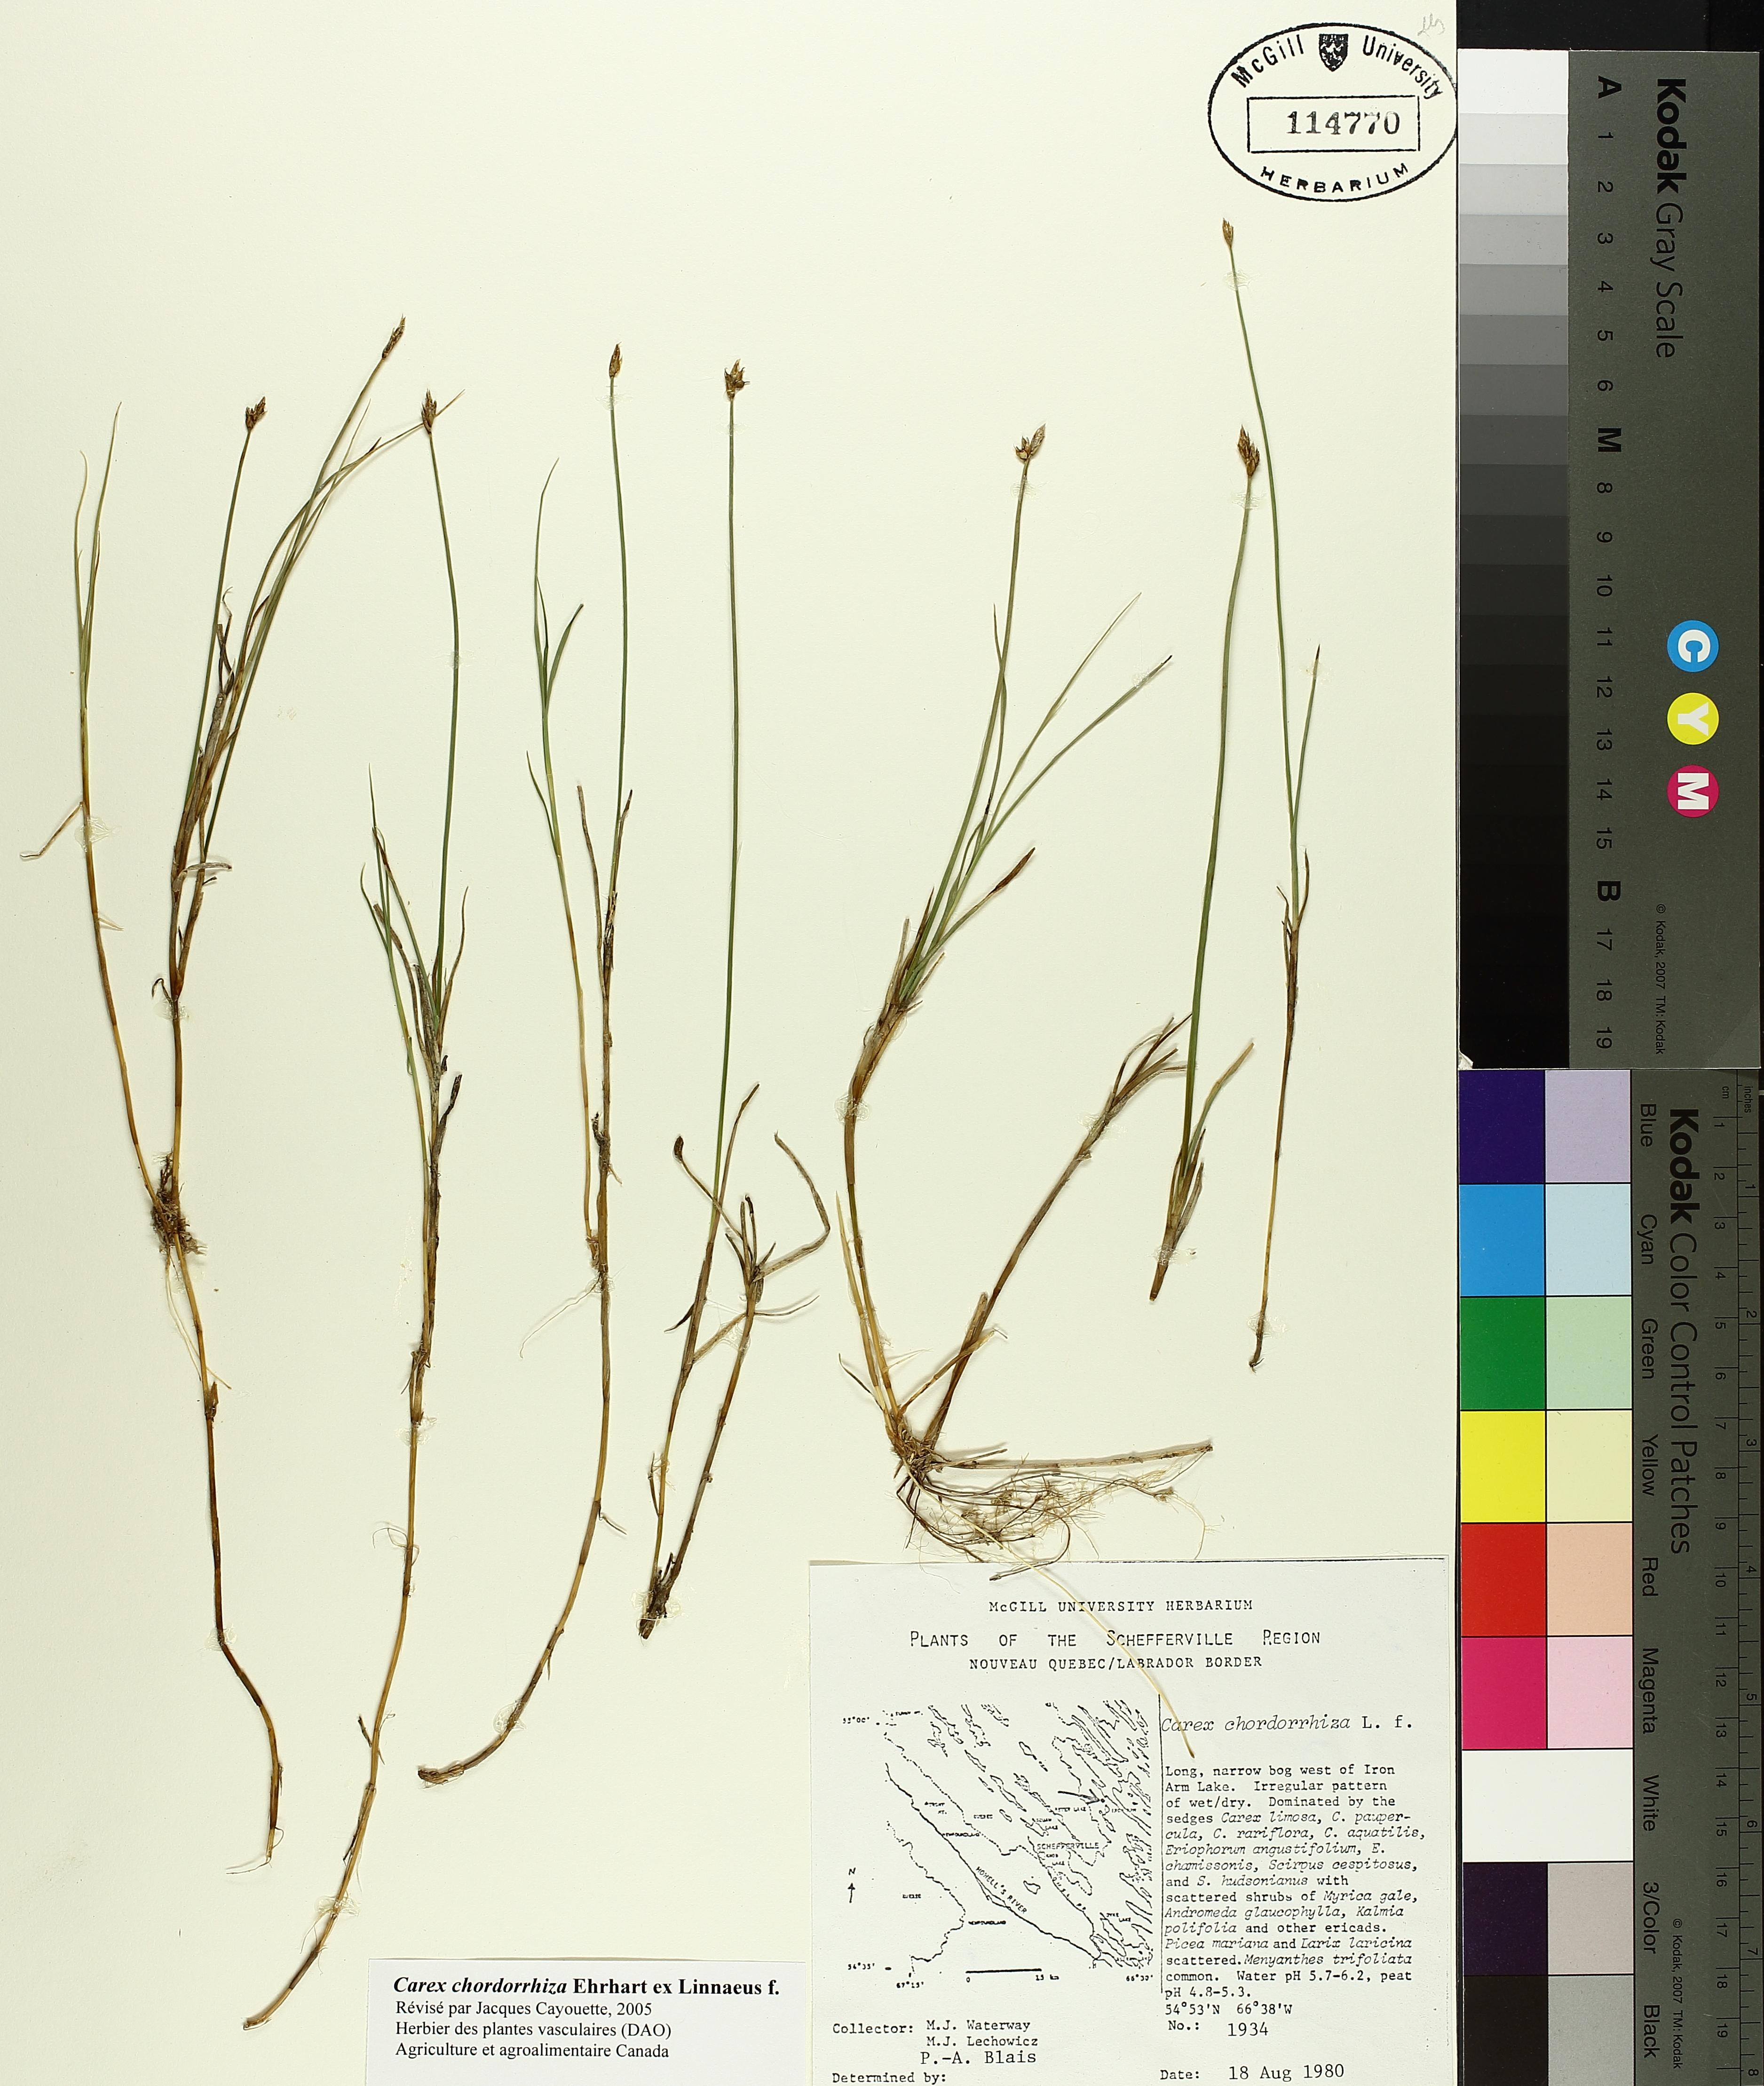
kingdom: Plantae
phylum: Tracheophyta
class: Liliopsida
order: Poales
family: Cyperaceae
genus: Carex
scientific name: Carex
